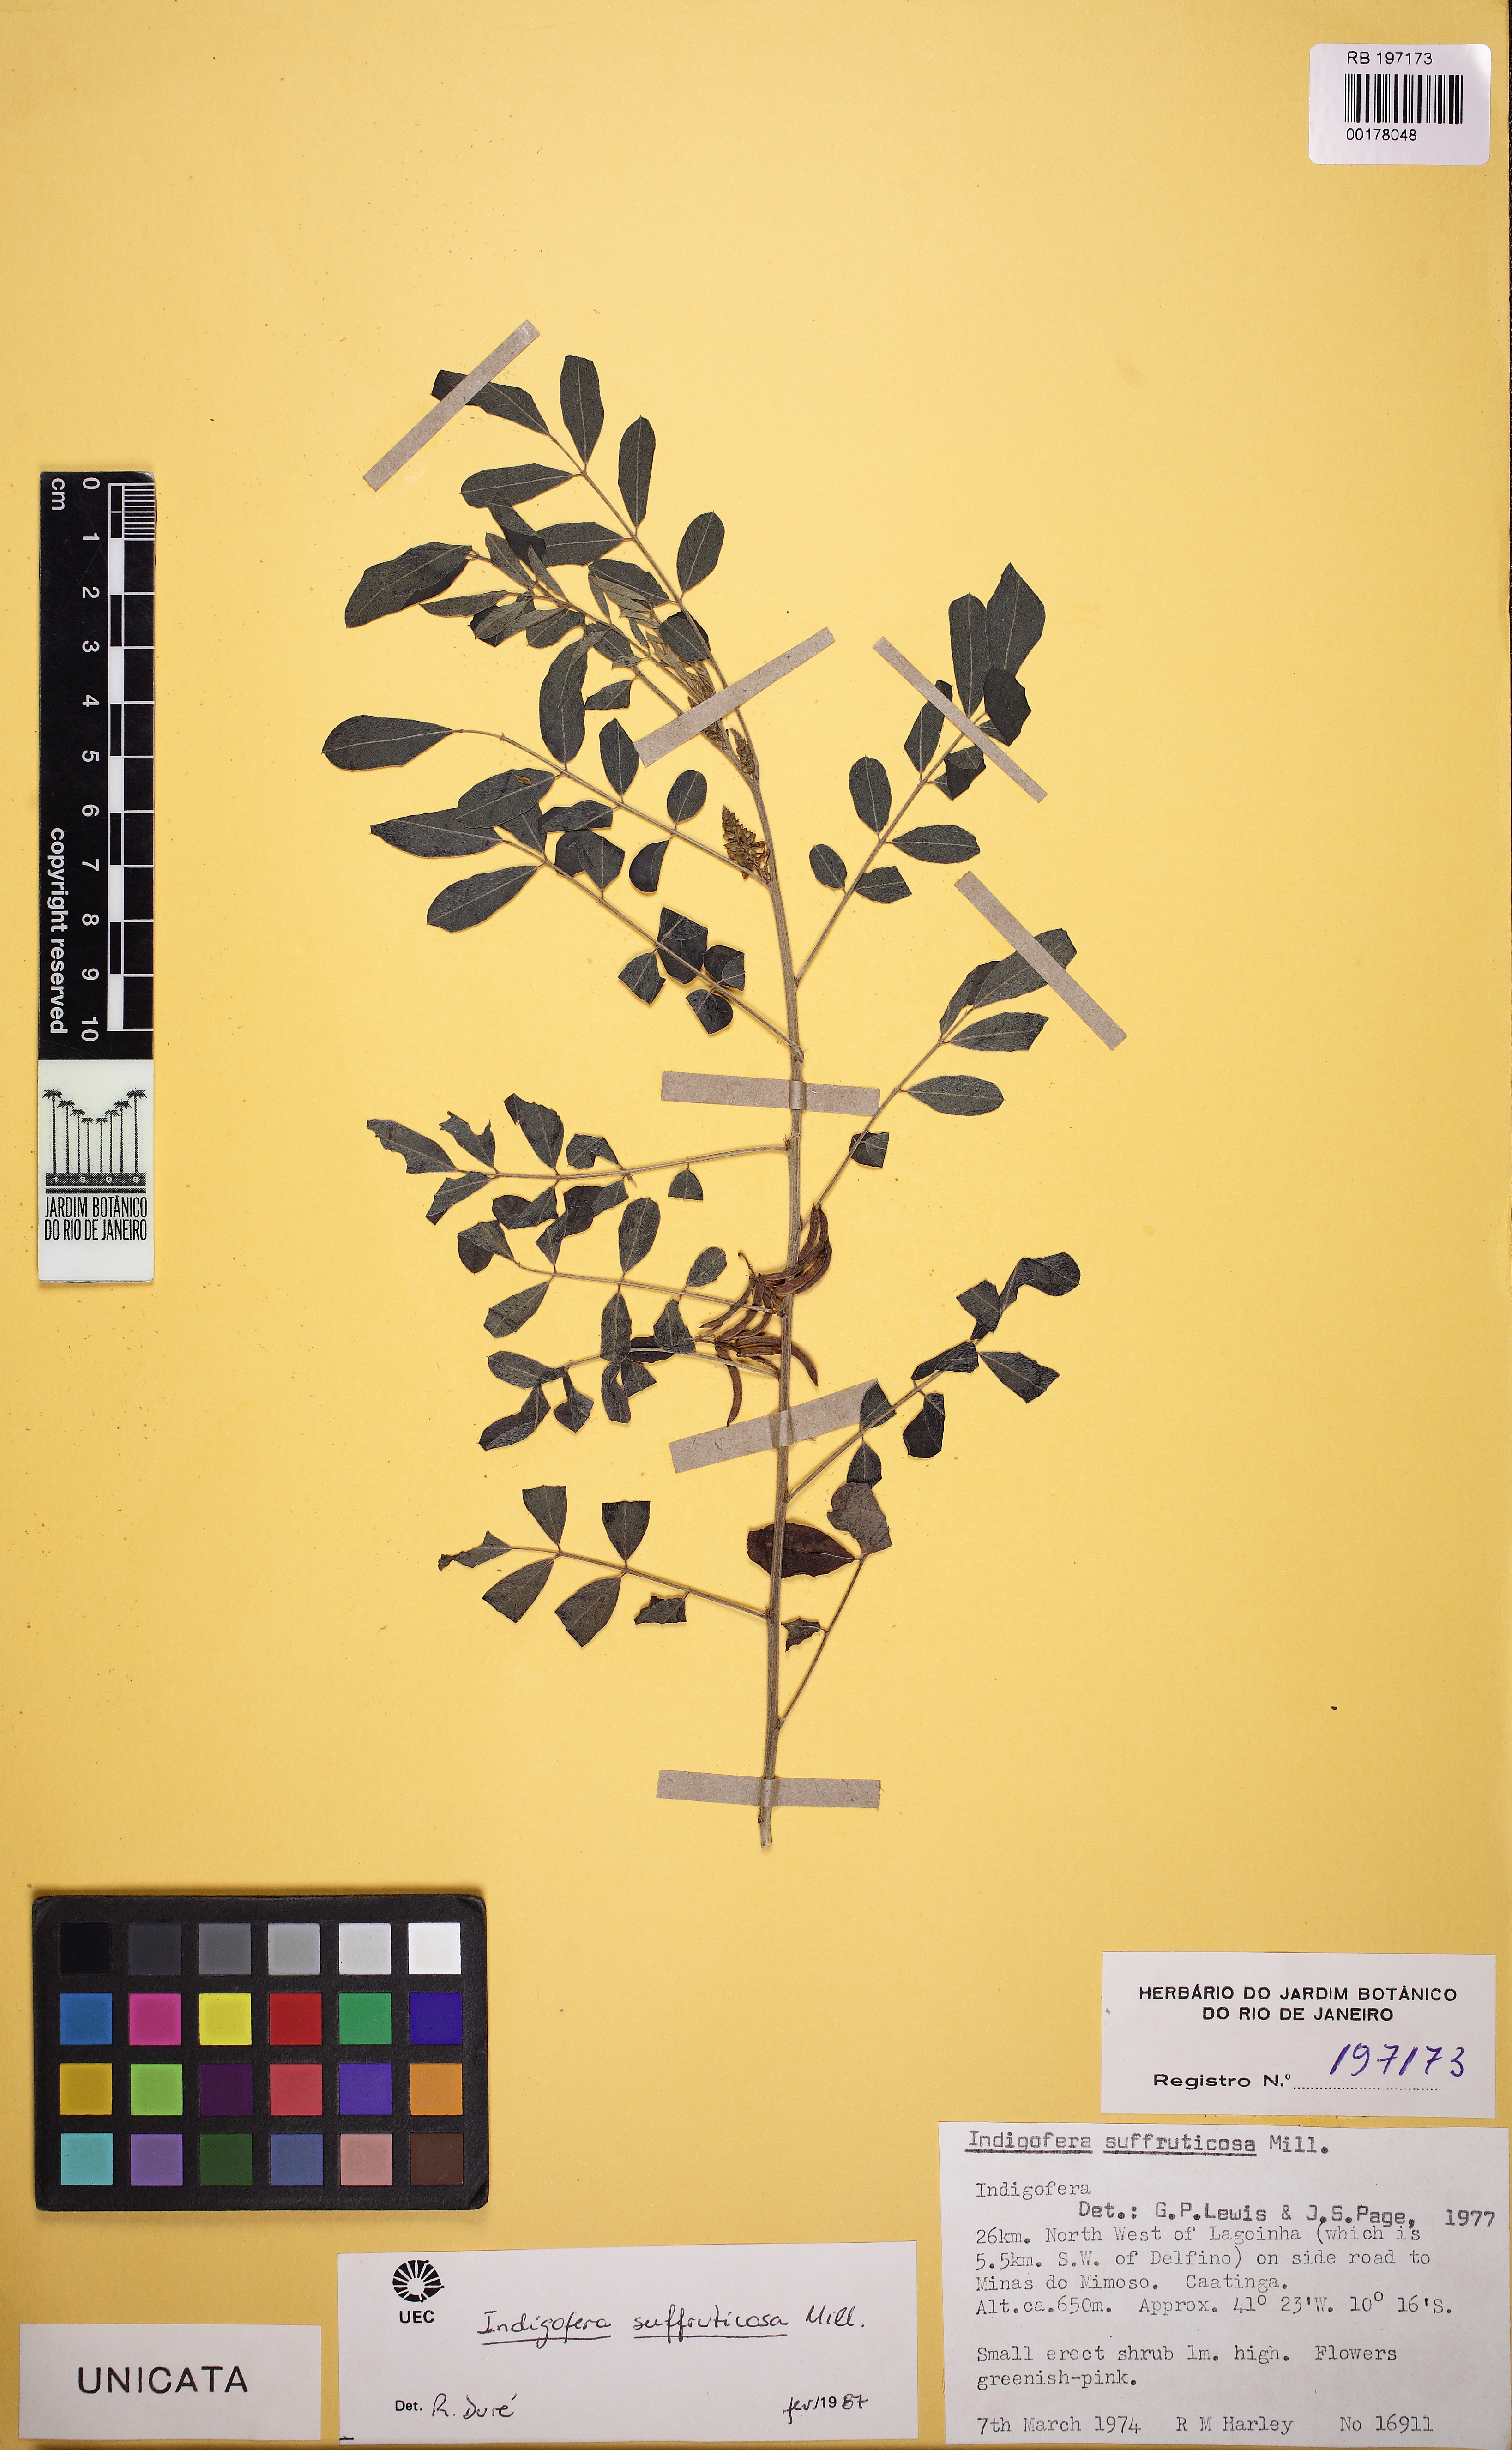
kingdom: Plantae
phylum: Tracheophyta
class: Magnoliopsida
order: Fabales
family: Fabaceae
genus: Indigofera
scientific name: Indigofera suffruticosa
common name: Anil de pasto
